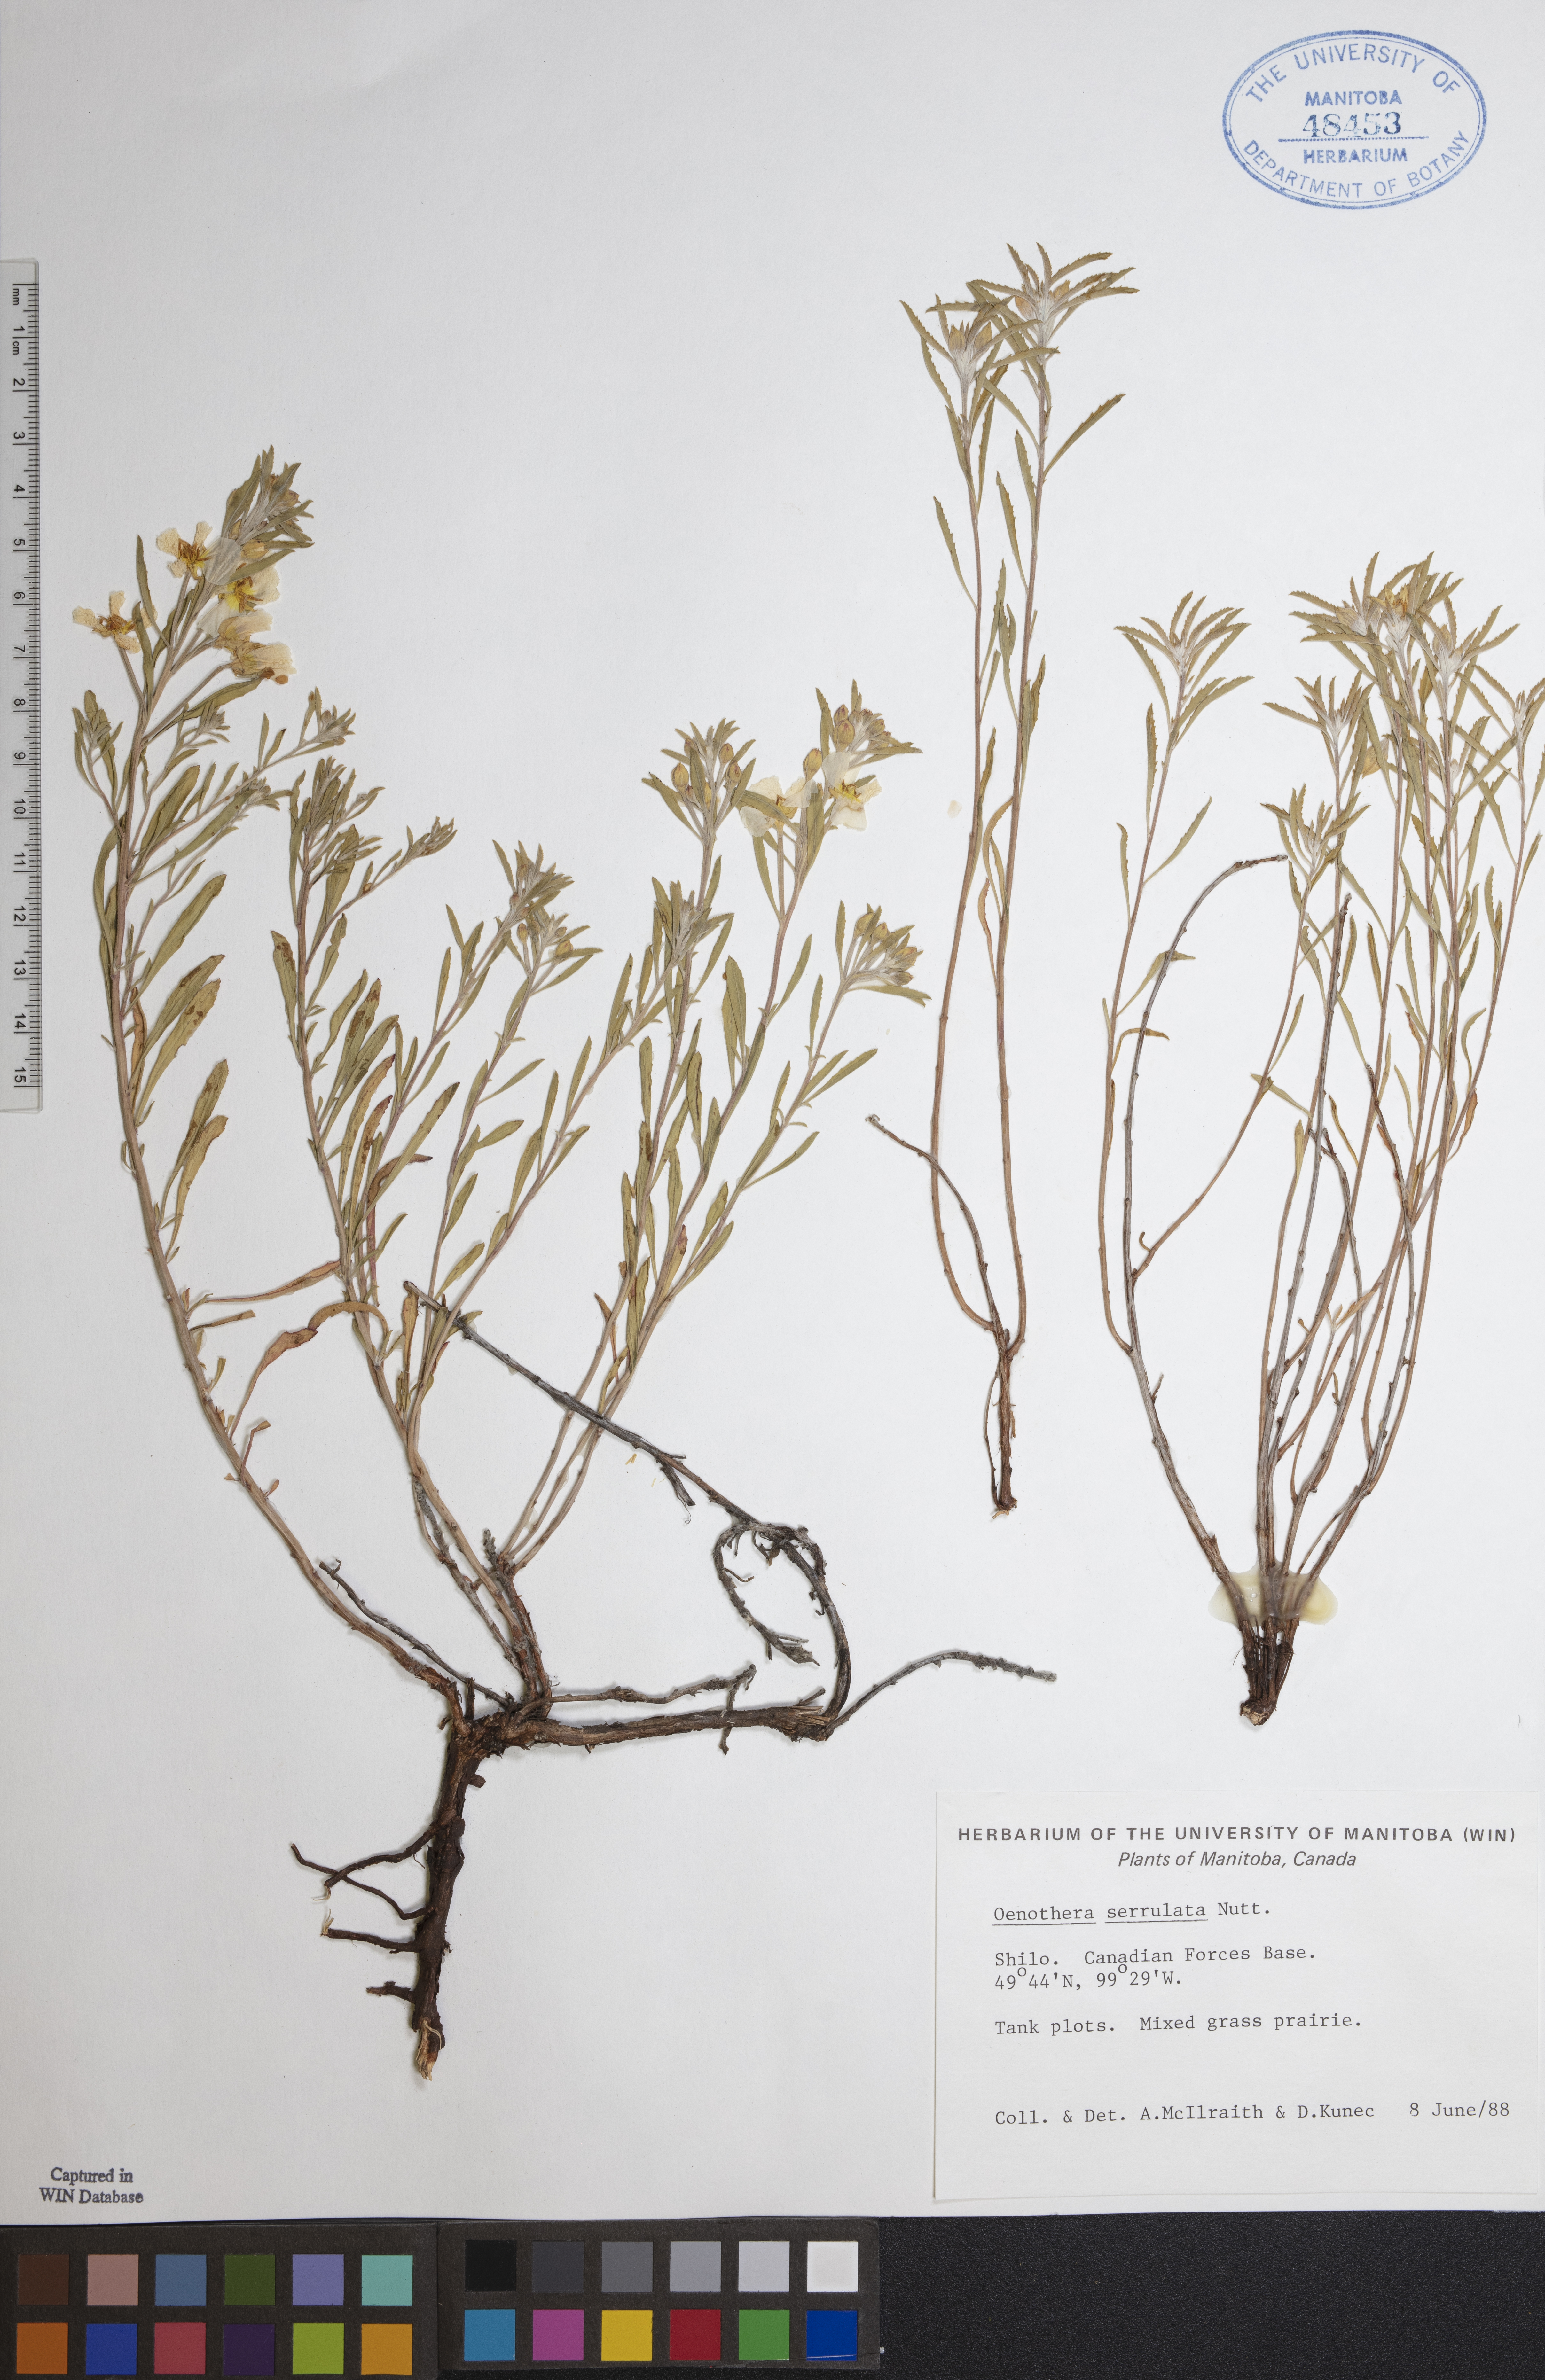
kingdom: Plantae
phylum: Tracheophyta
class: Magnoliopsida
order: Myrtales
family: Onagraceae
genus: Oenothera
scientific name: Oenothera serrulata
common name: Half-shrub calylophus
